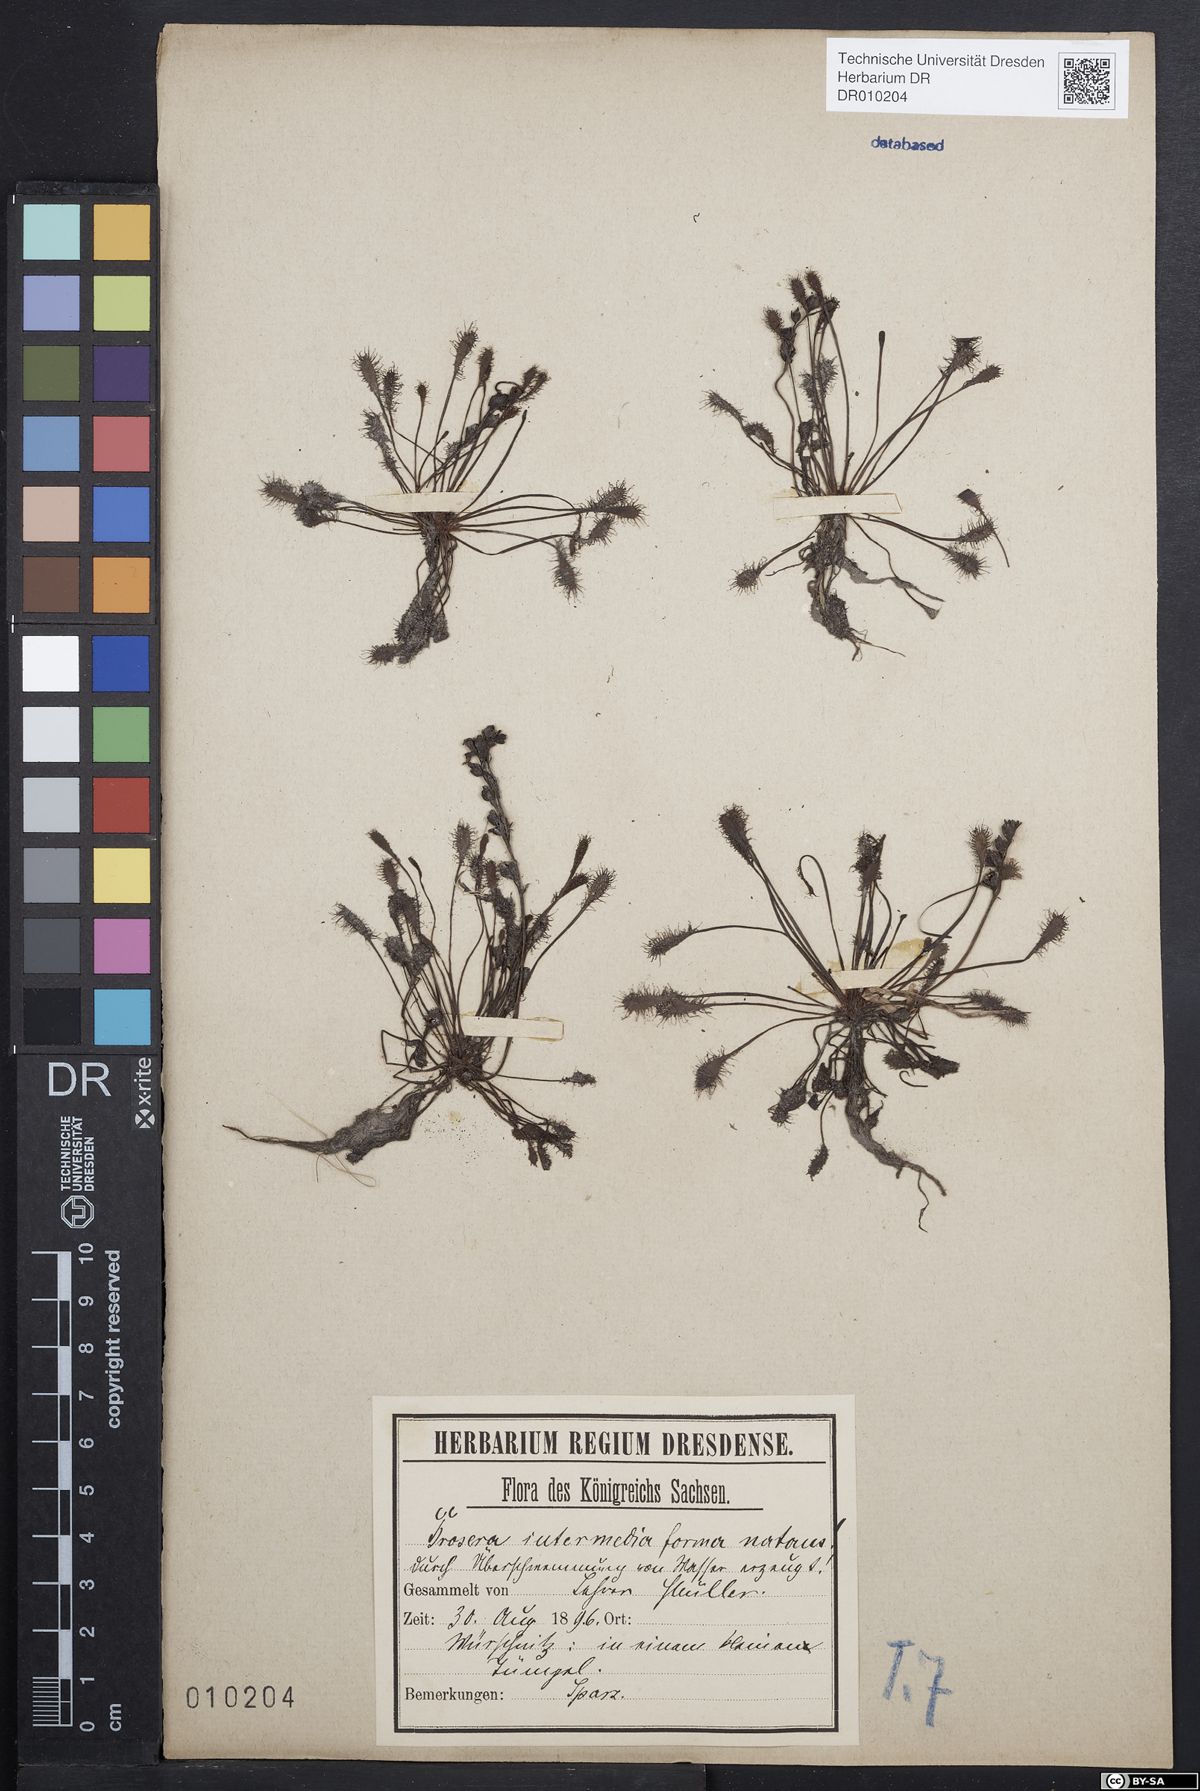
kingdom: Plantae
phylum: Tracheophyta
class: Magnoliopsida
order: Caryophyllales
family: Droseraceae
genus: Drosera
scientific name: Drosera intermedia
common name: Oblong-leaved sundew
